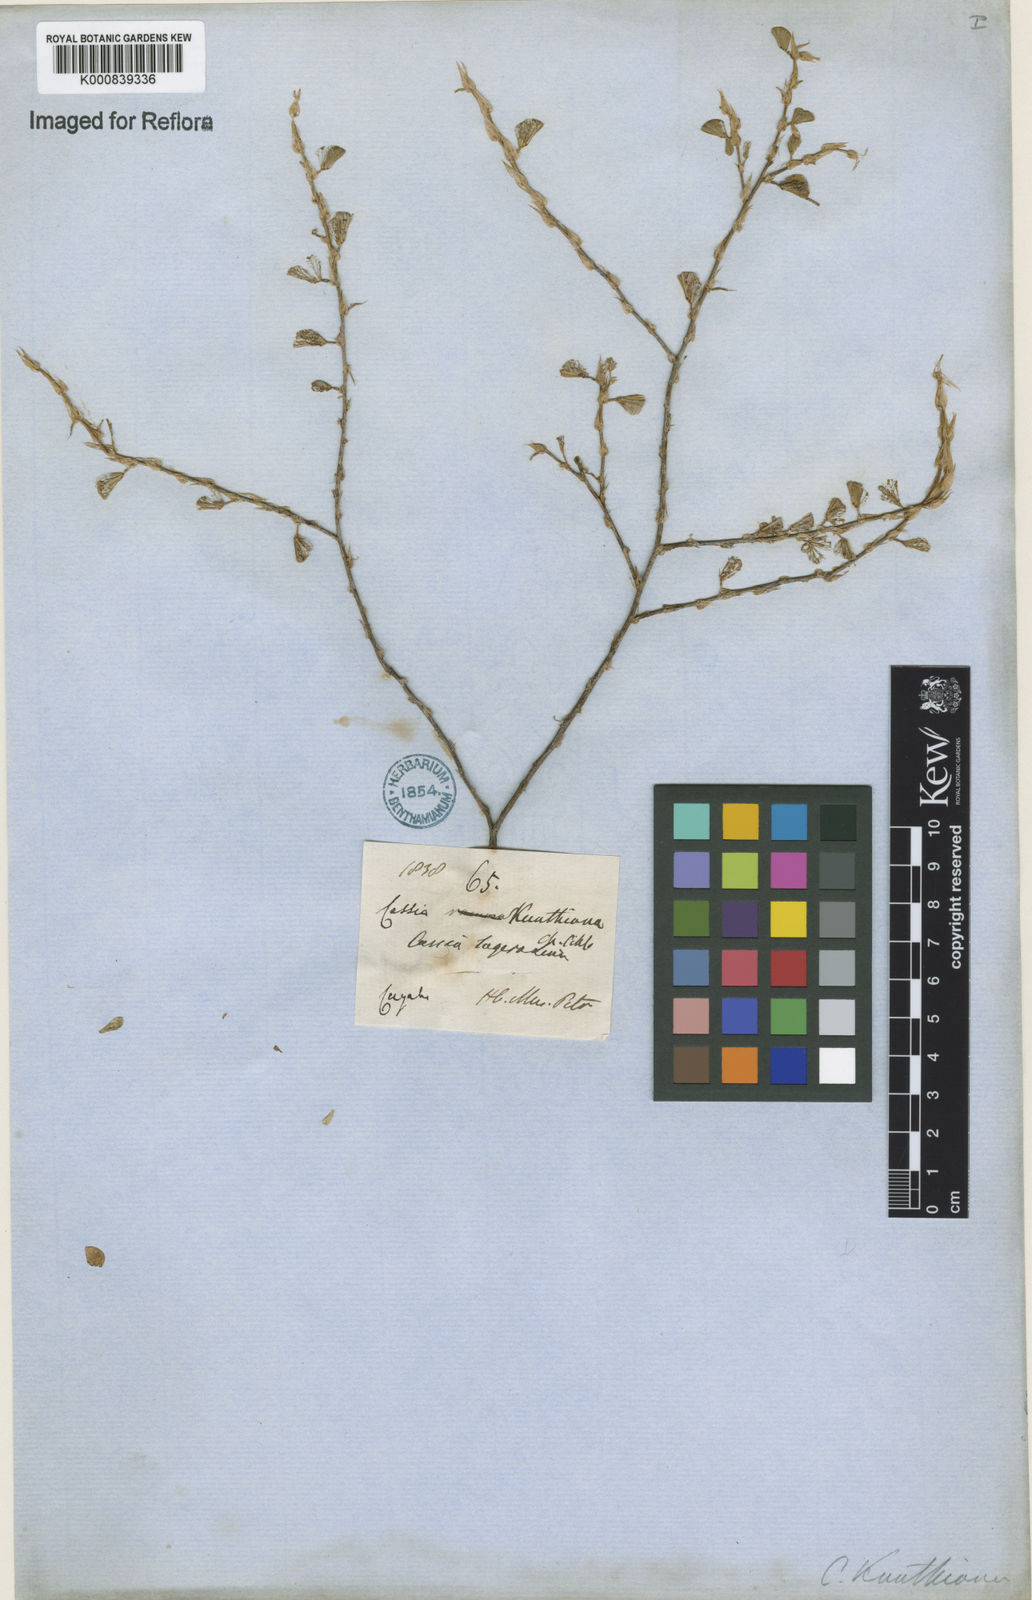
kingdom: Plantae
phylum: Tracheophyta
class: Magnoliopsida
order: Fabales
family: Fabaceae
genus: Chamaecrista
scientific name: Chamaecrista kunthiana
